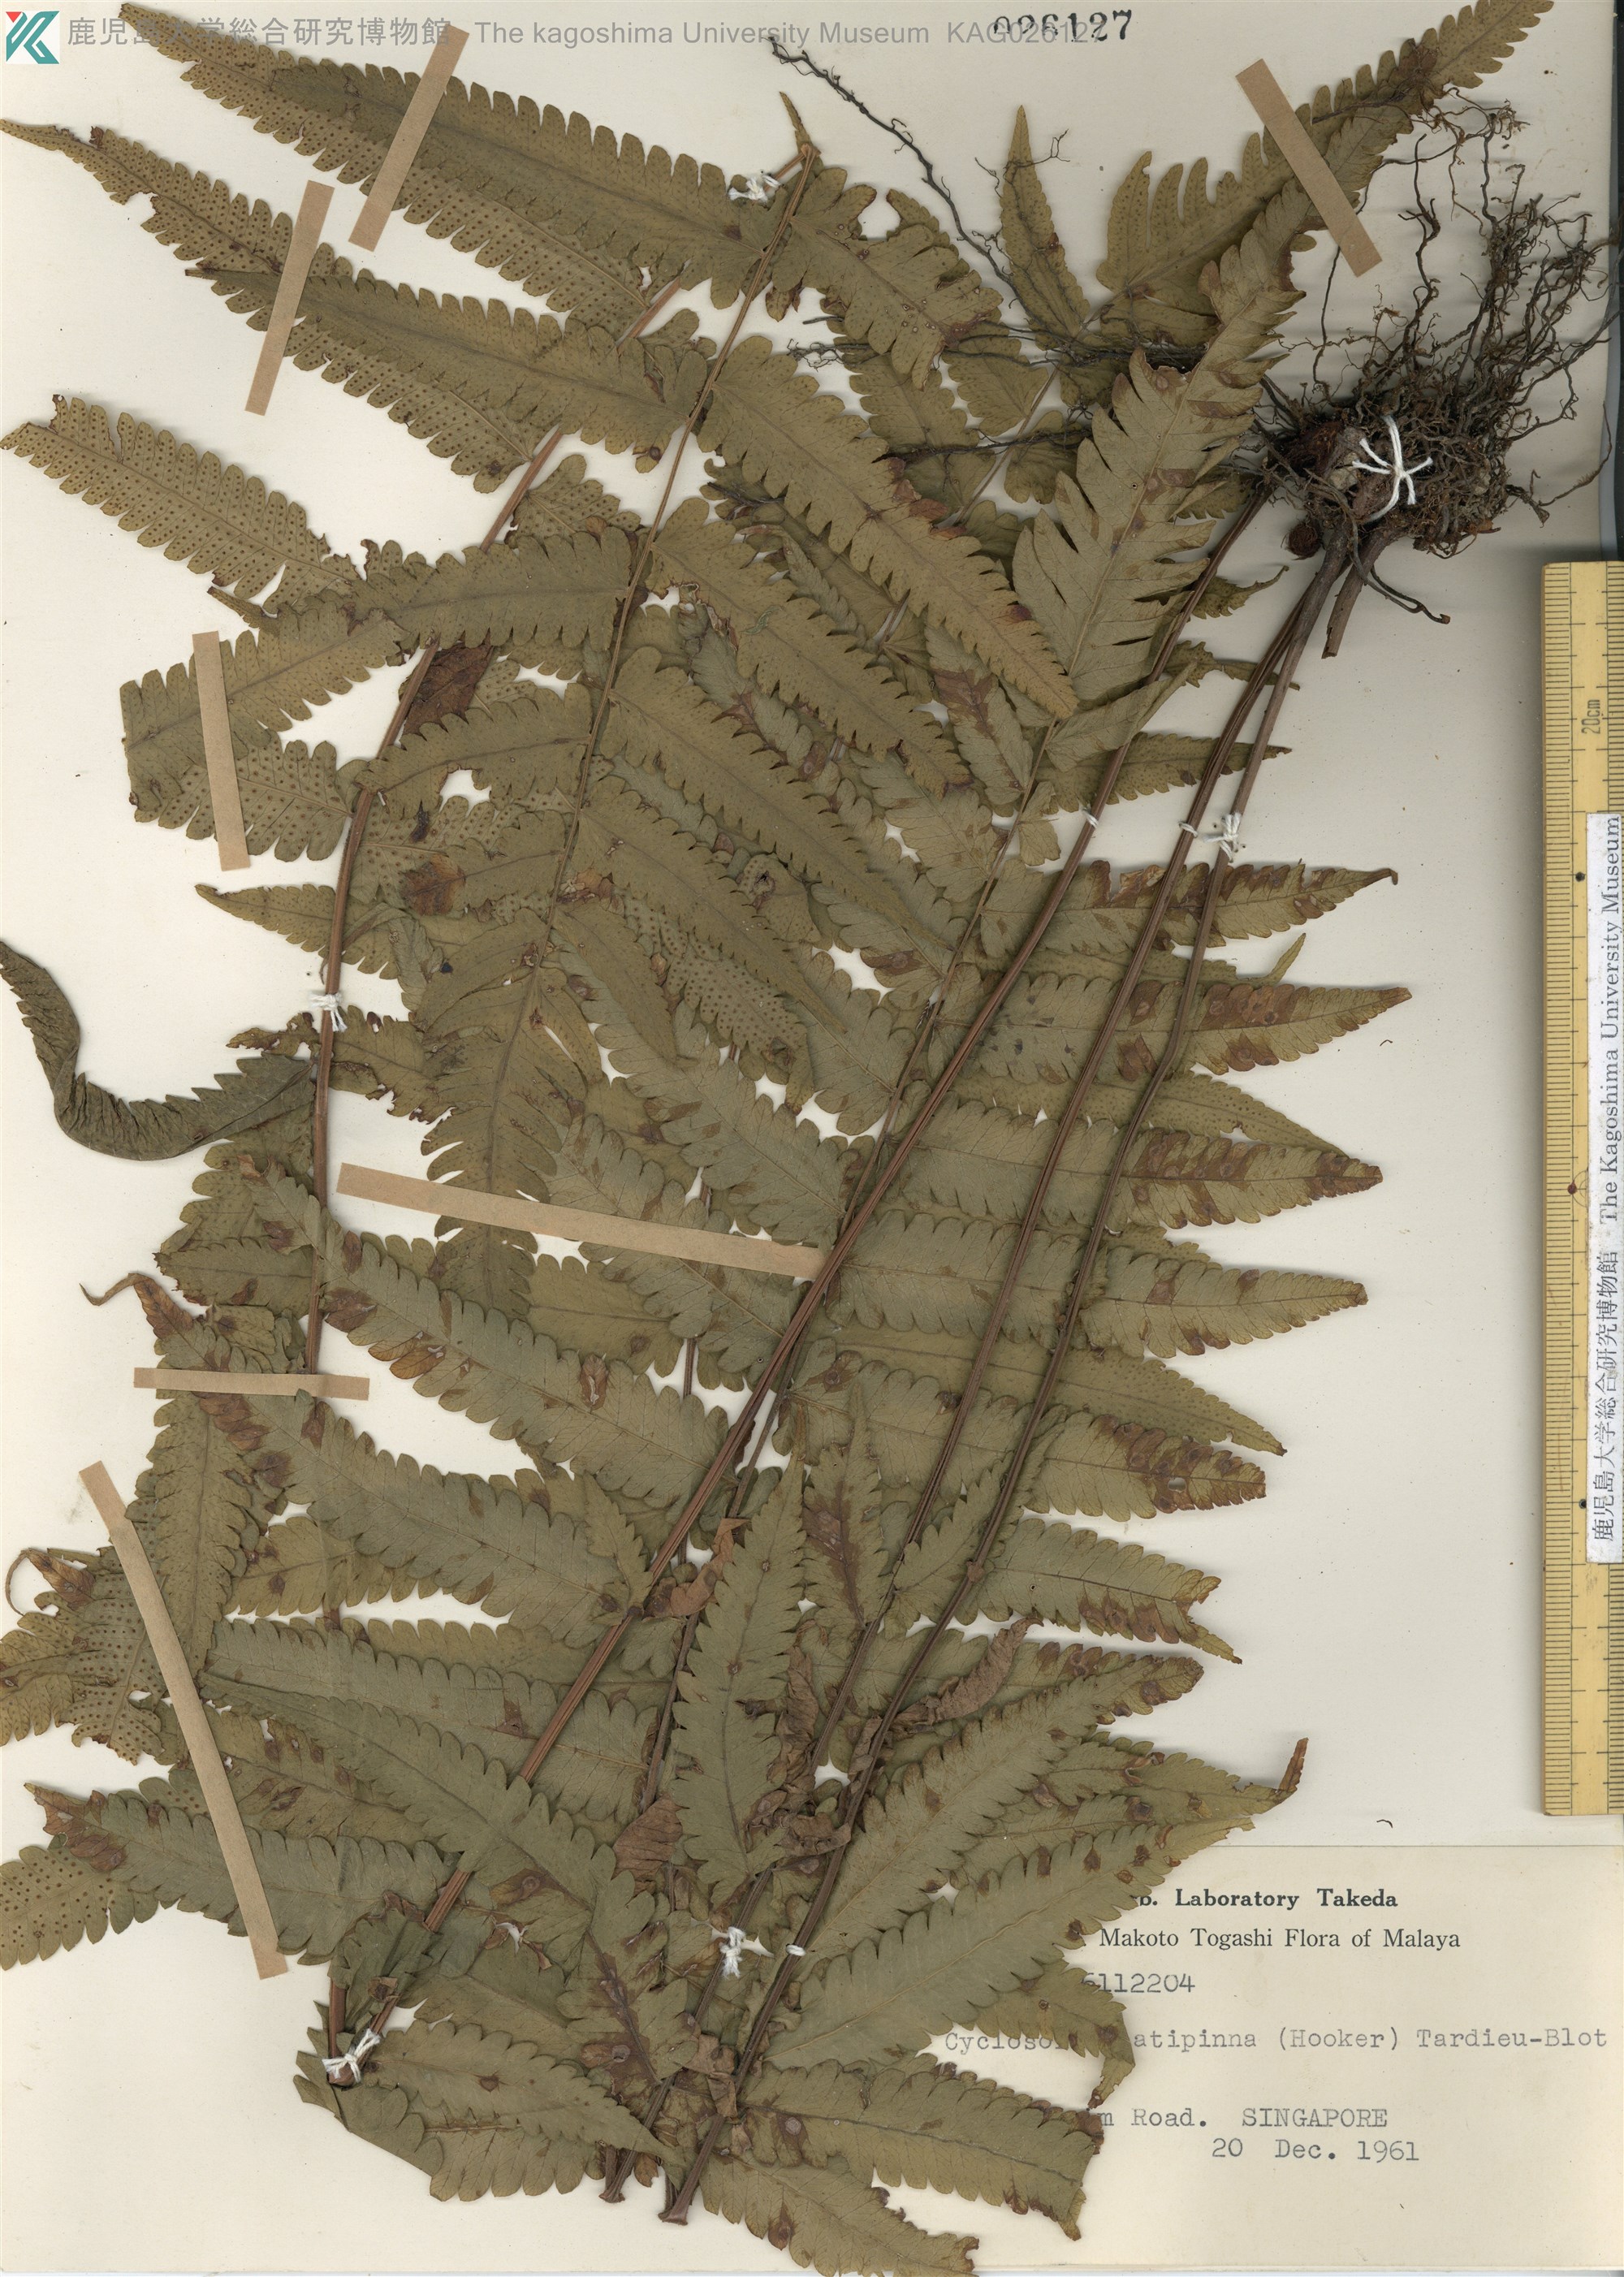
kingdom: Plantae
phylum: Tracheophyta
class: Polypodiopsida
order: Polypodiales
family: Thelypteridaceae
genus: Christella
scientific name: Christella latipinna
